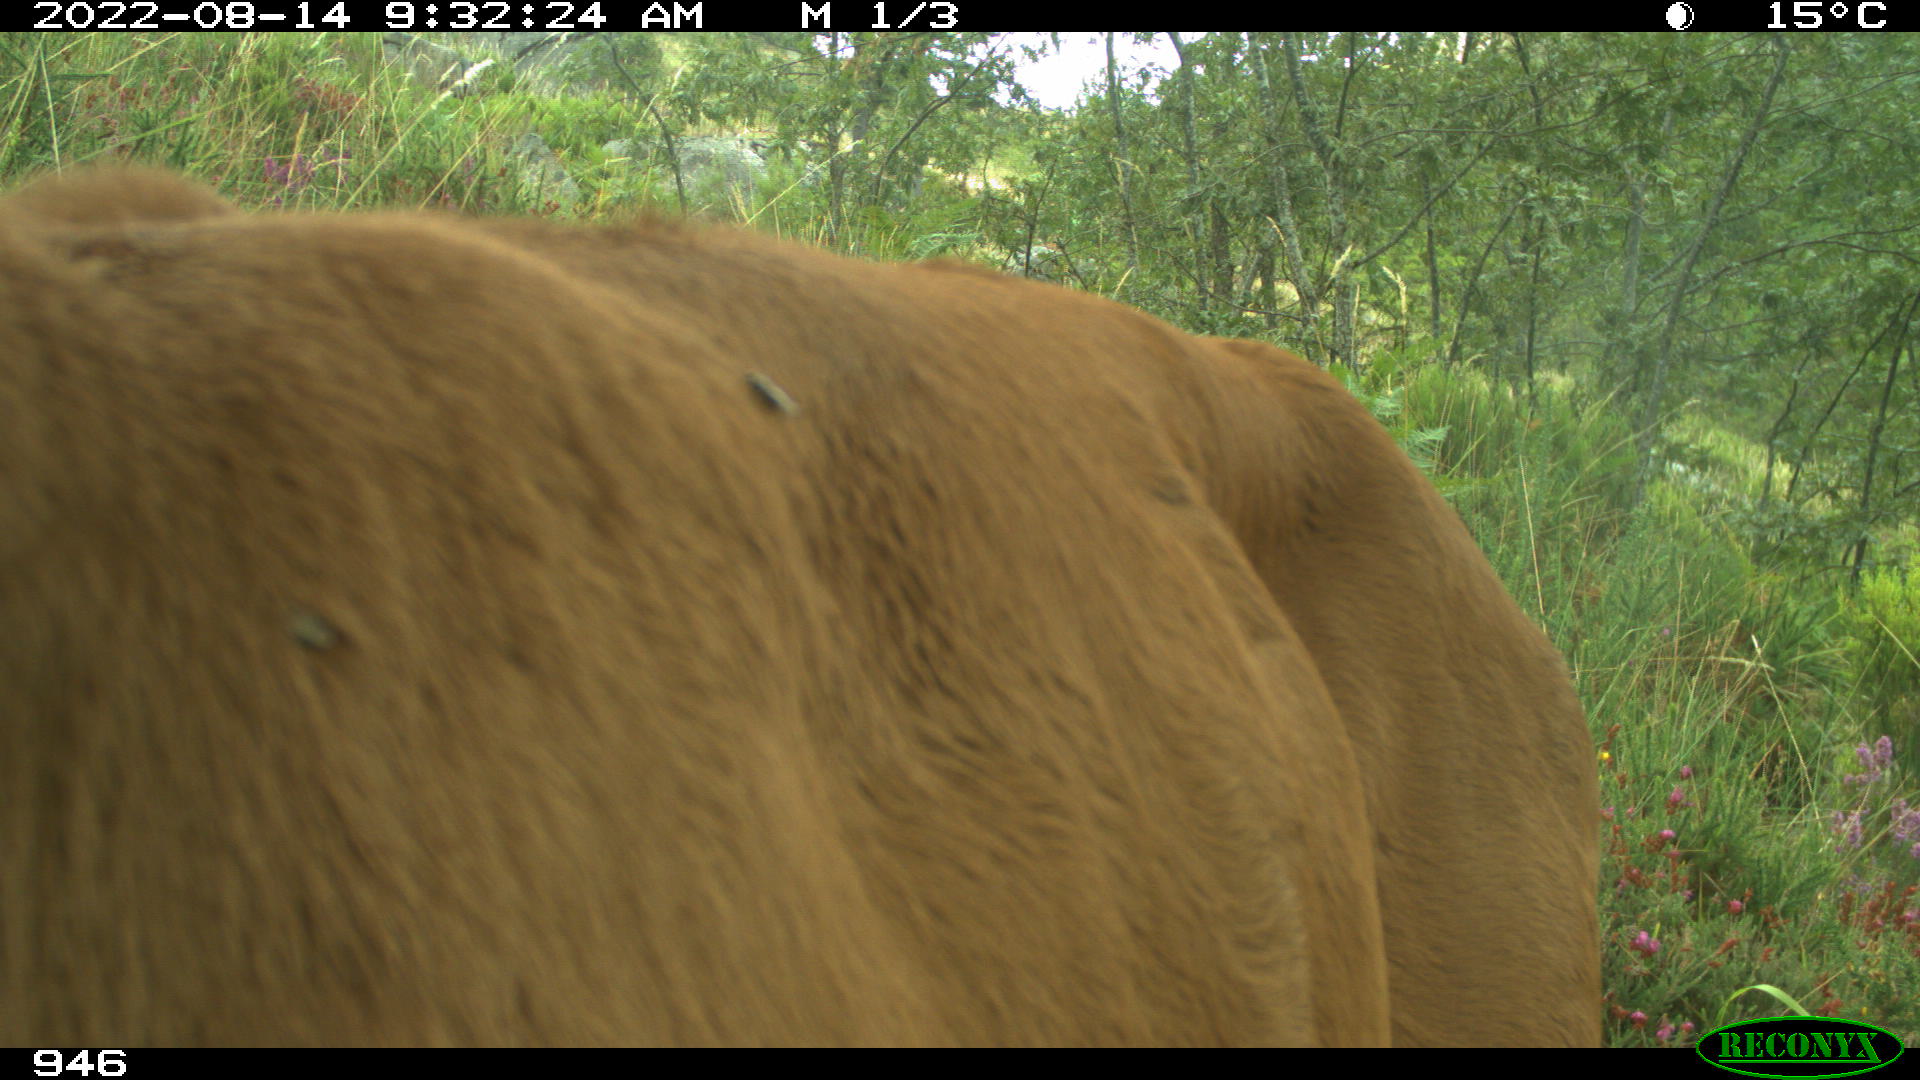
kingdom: Animalia
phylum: Chordata
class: Mammalia
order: Artiodactyla
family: Bovidae
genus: Bos
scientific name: Bos taurus
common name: Domesticated cattle
